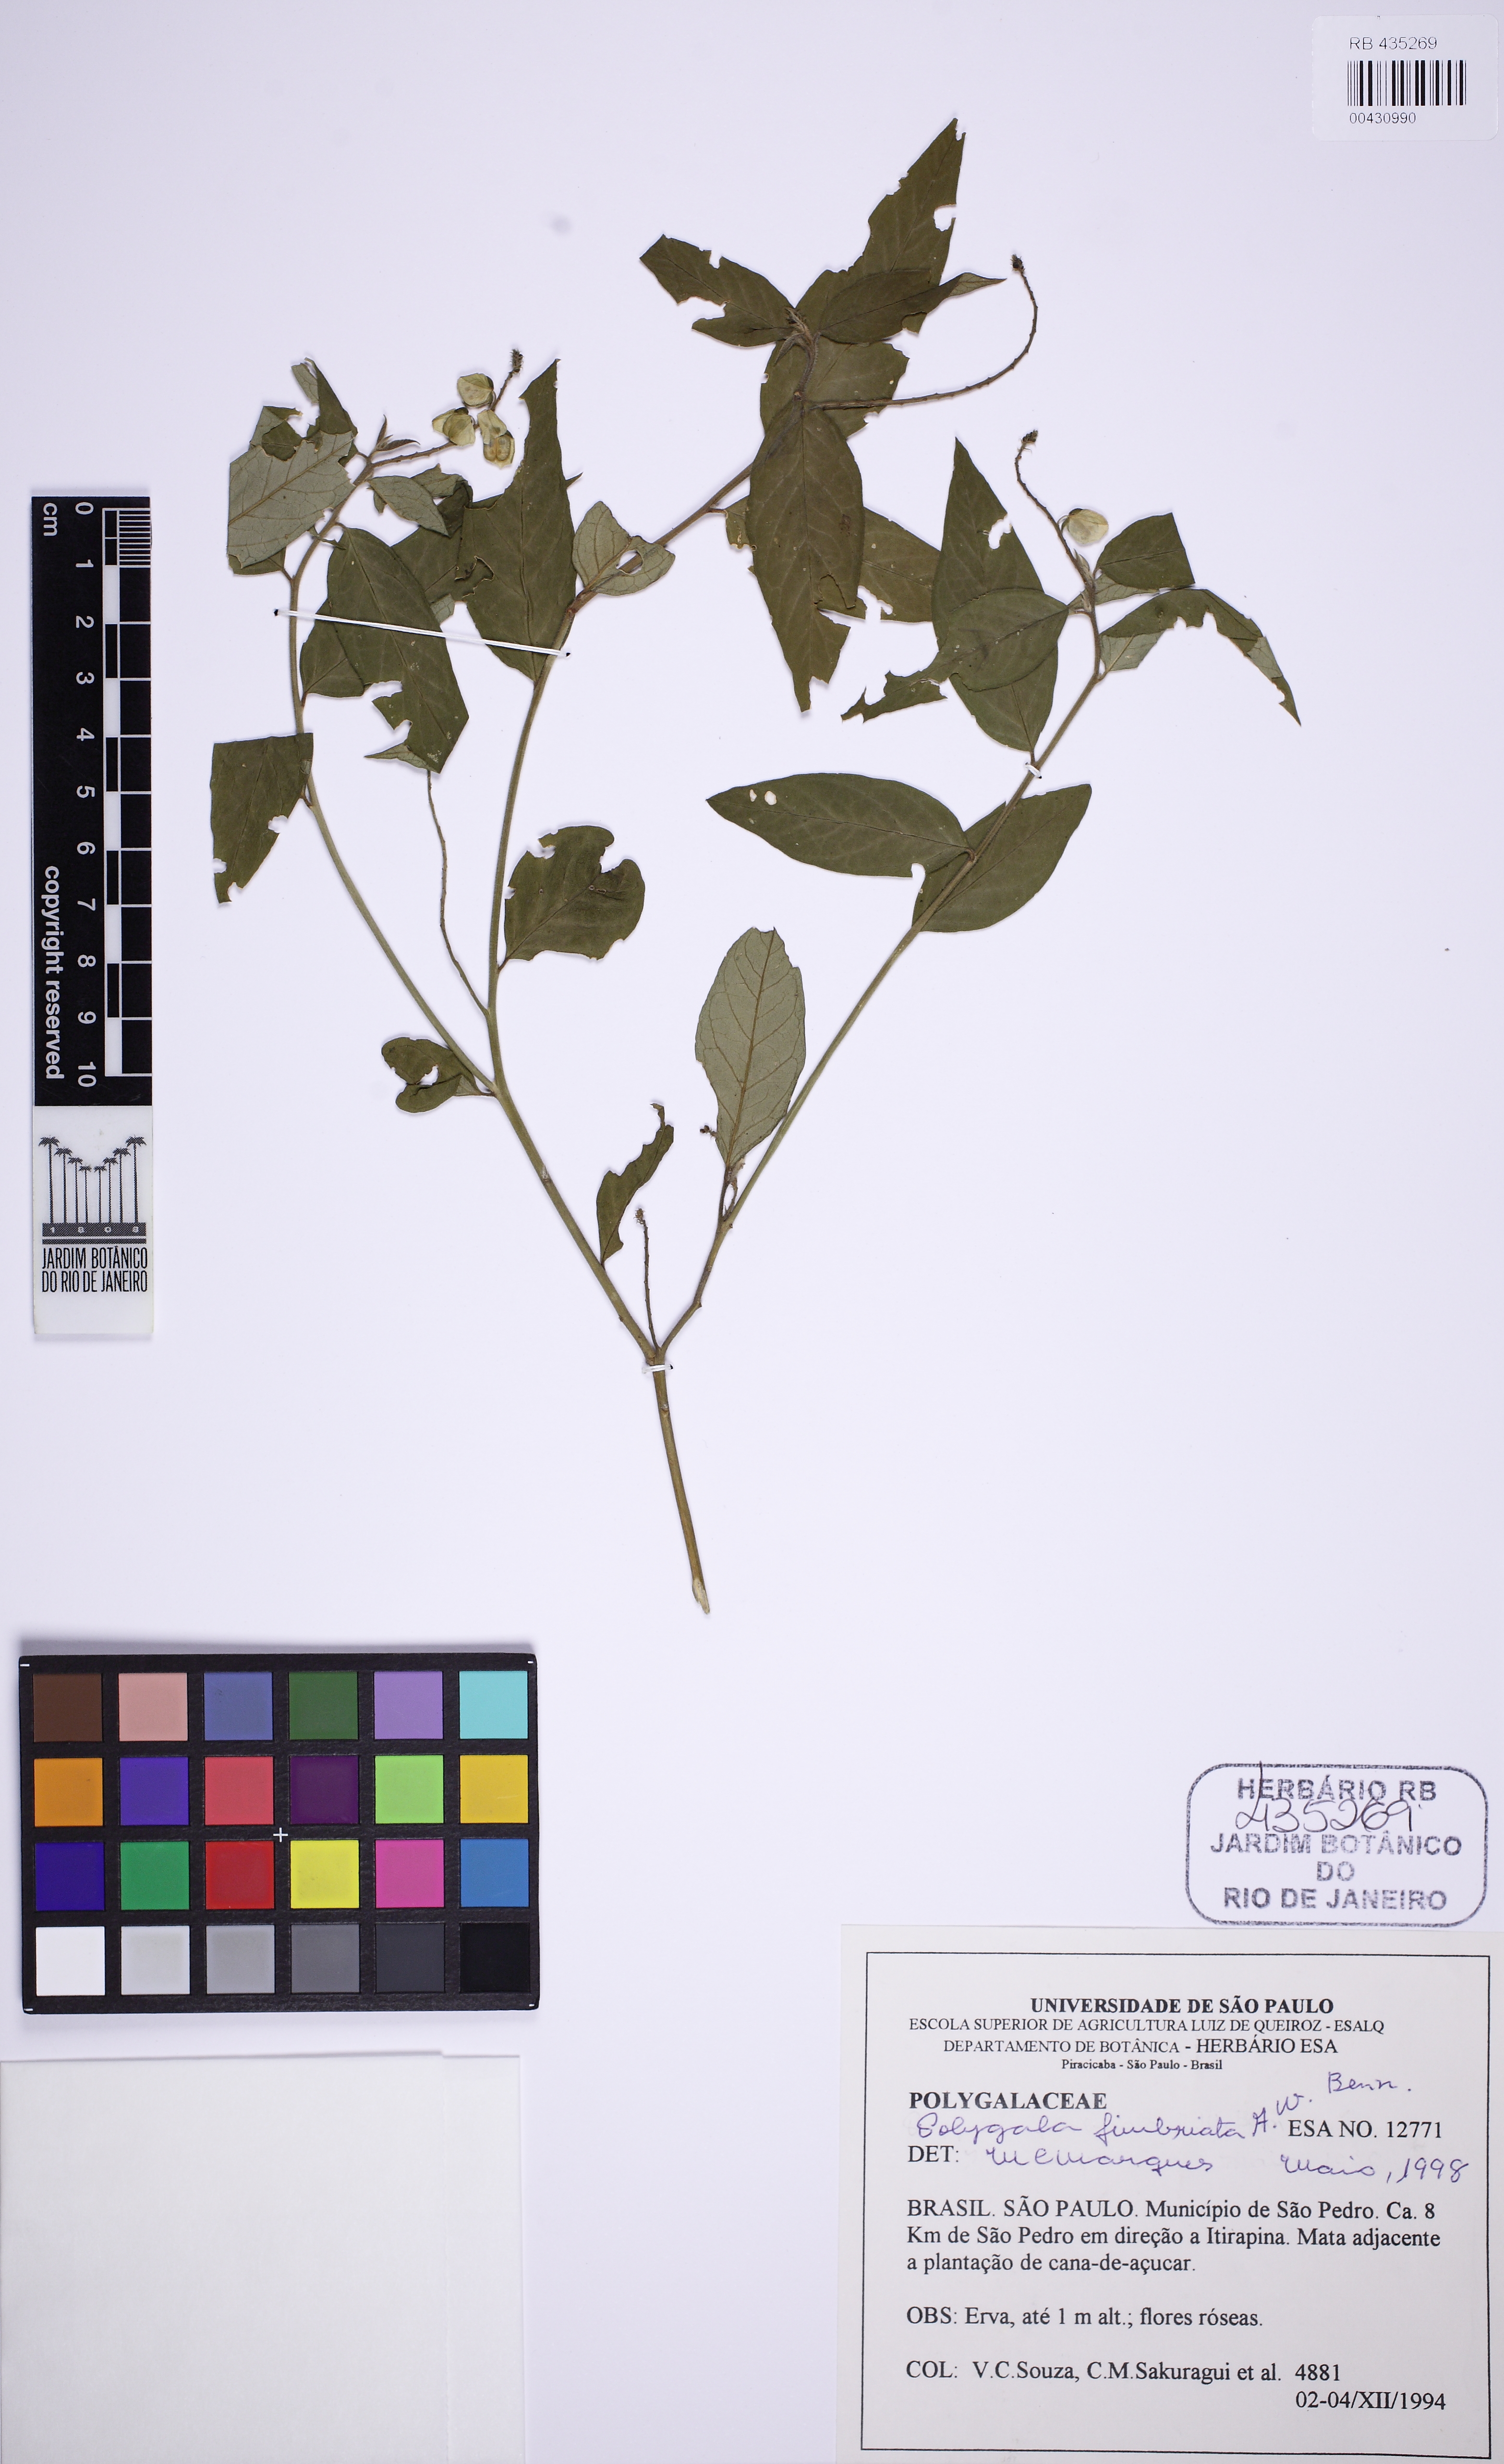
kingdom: Plantae
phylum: Tracheophyta
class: Magnoliopsida
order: Fabales
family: Polygalaceae
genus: Asemeia
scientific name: Asemeia acuminata
